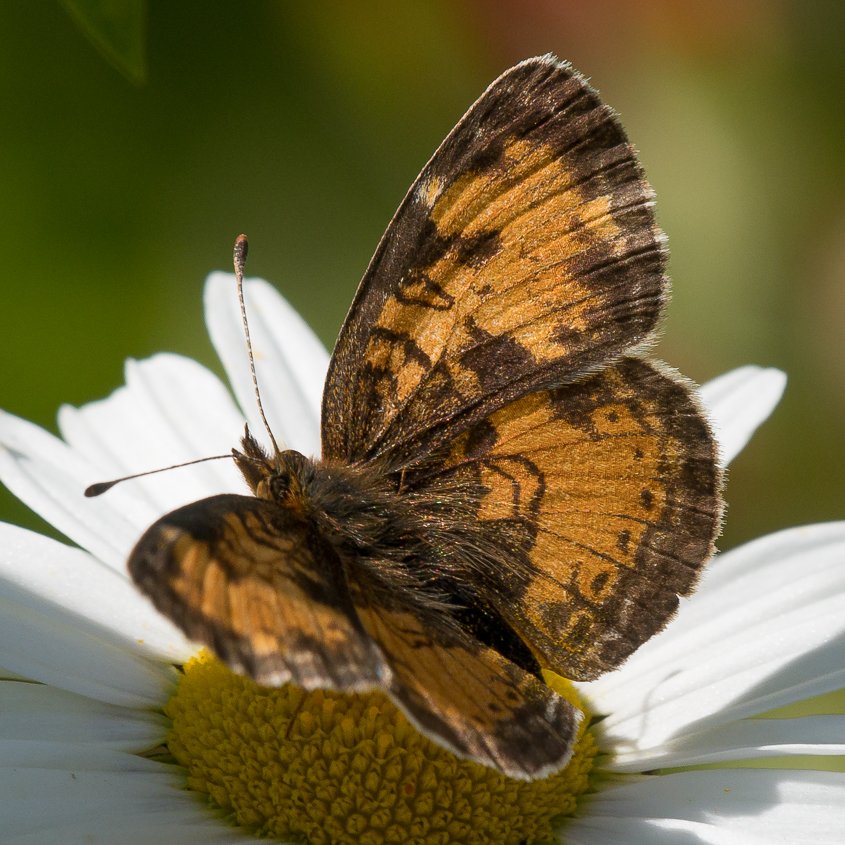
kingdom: Animalia
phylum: Arthropoda
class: Insecta
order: Lepidoptera
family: Nymphalidae
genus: Phyciodes
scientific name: Phyciodes tharos
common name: Northern Crescent
